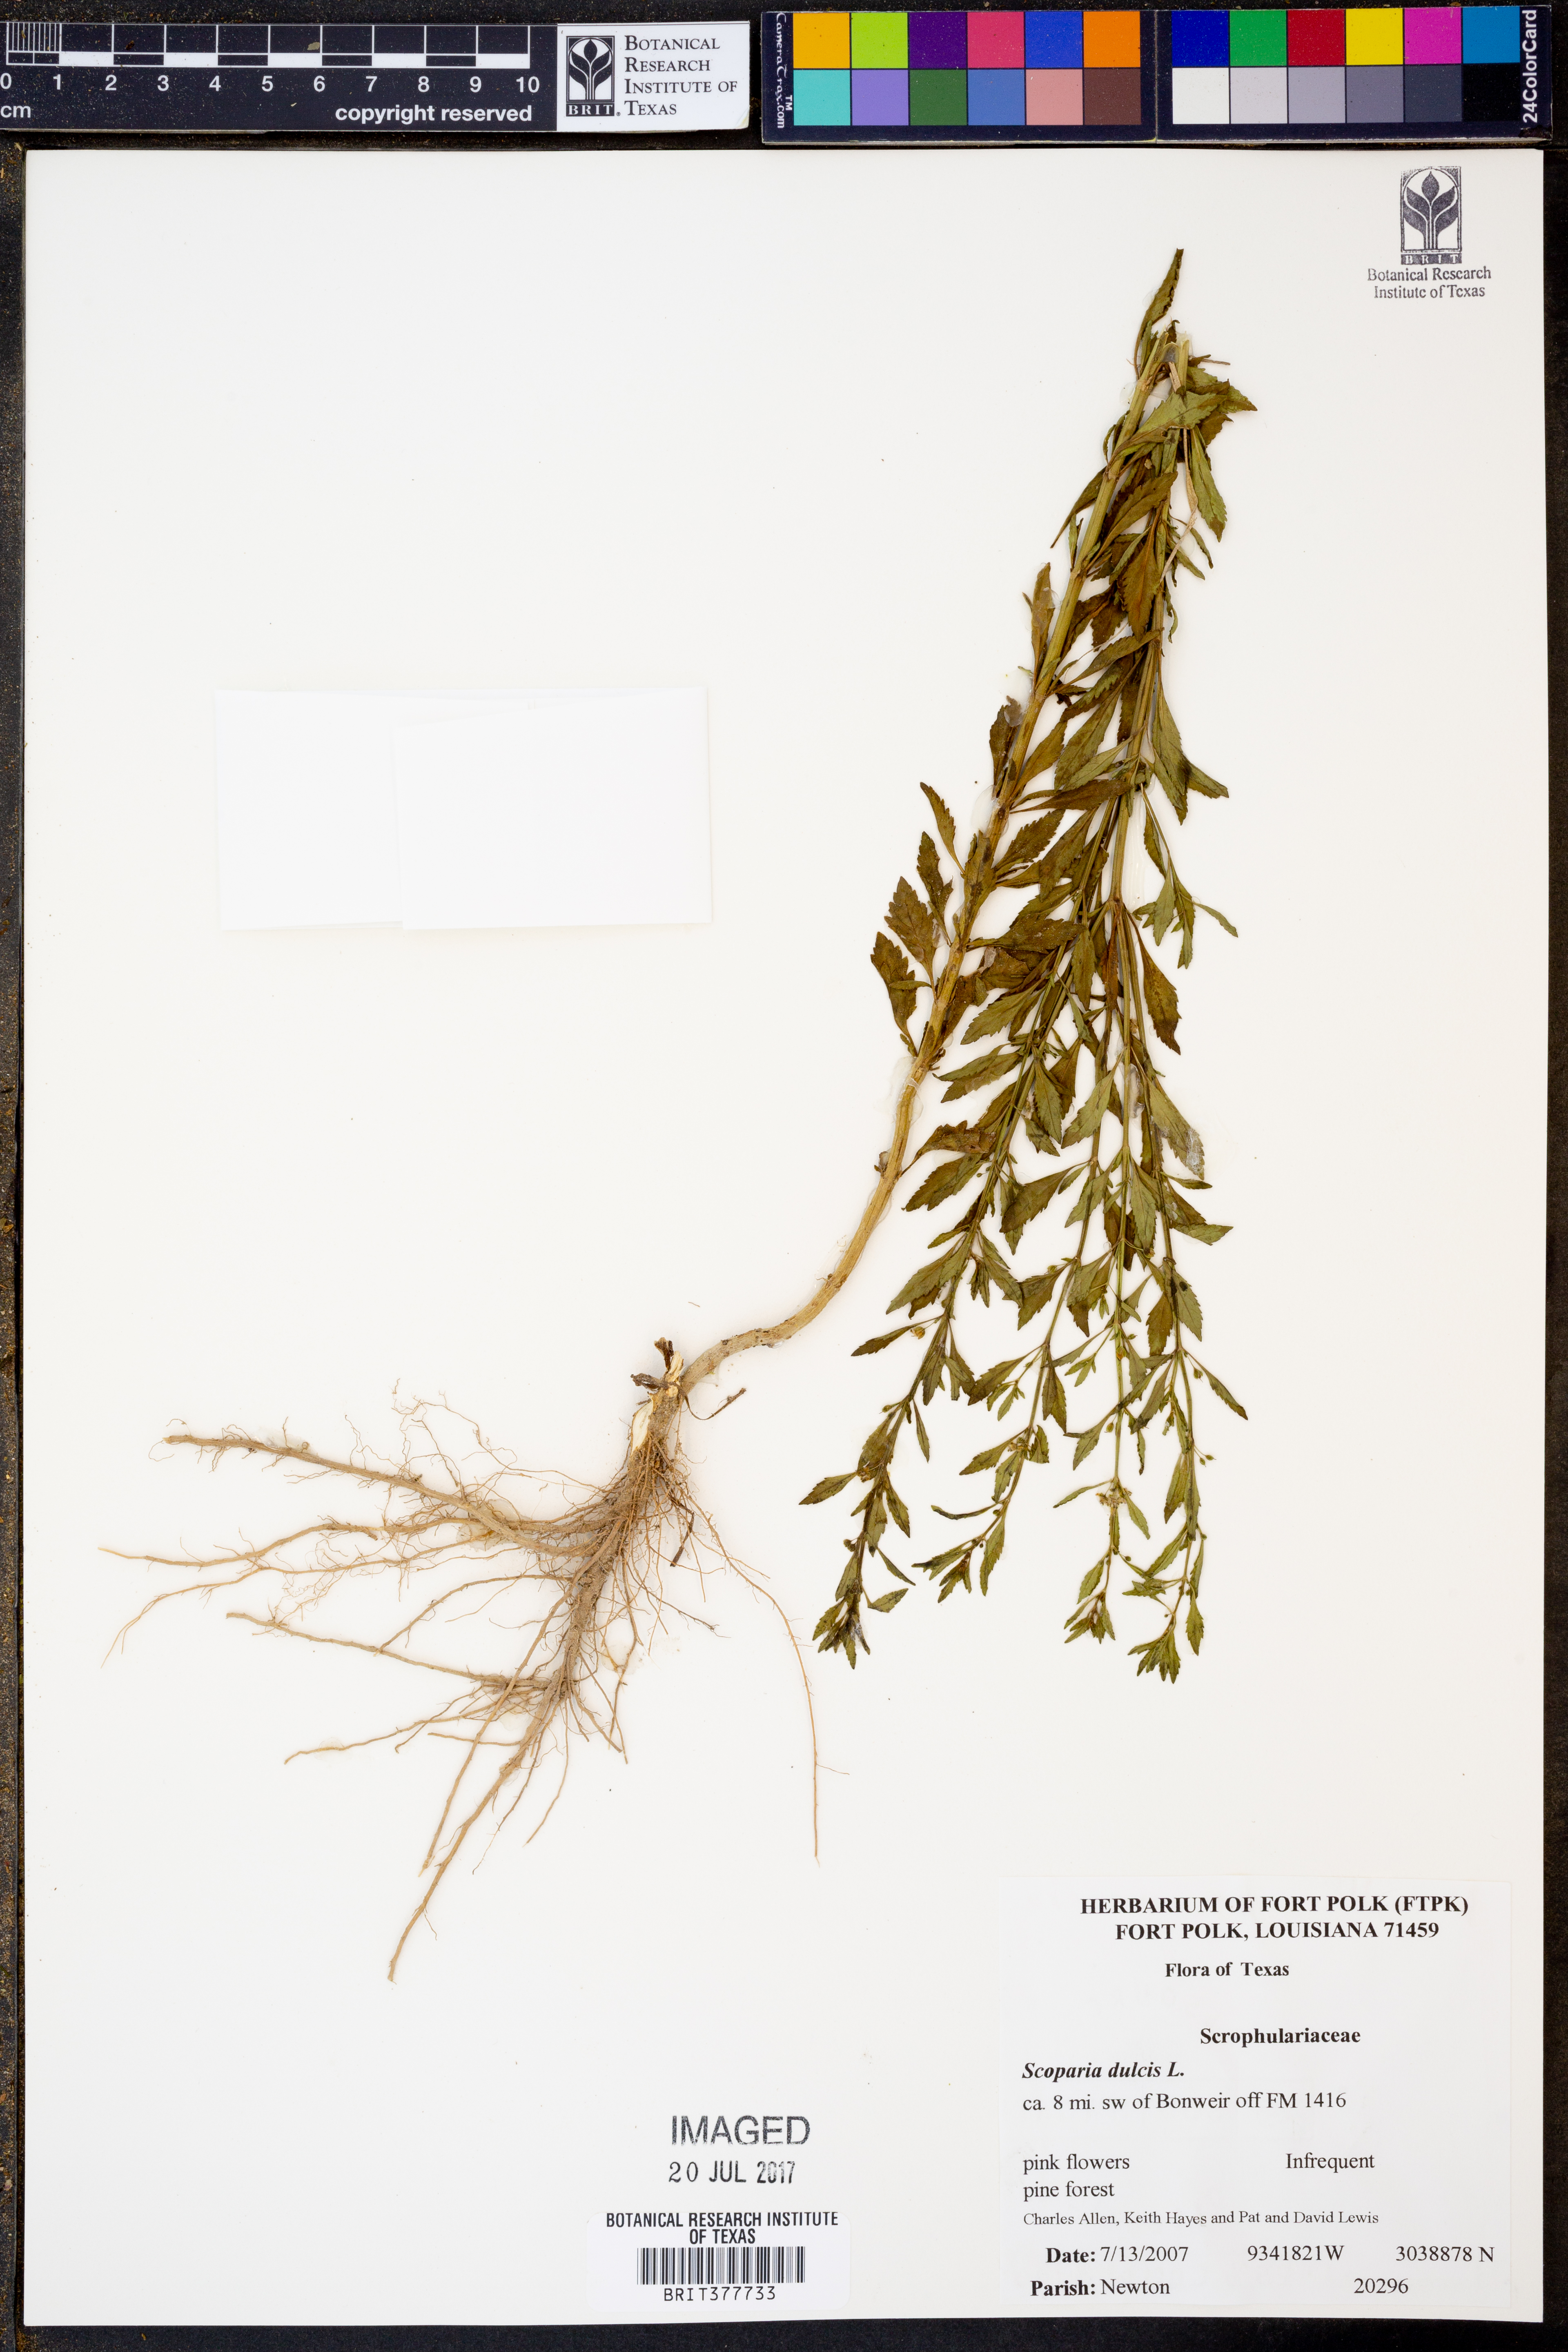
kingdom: Plantae
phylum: Tracheophyta
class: Magnoliopsida
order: Lamiales
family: Plantaginaceae
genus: Scoparia
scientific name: Scoparia dulcis
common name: Scoparia-weed
